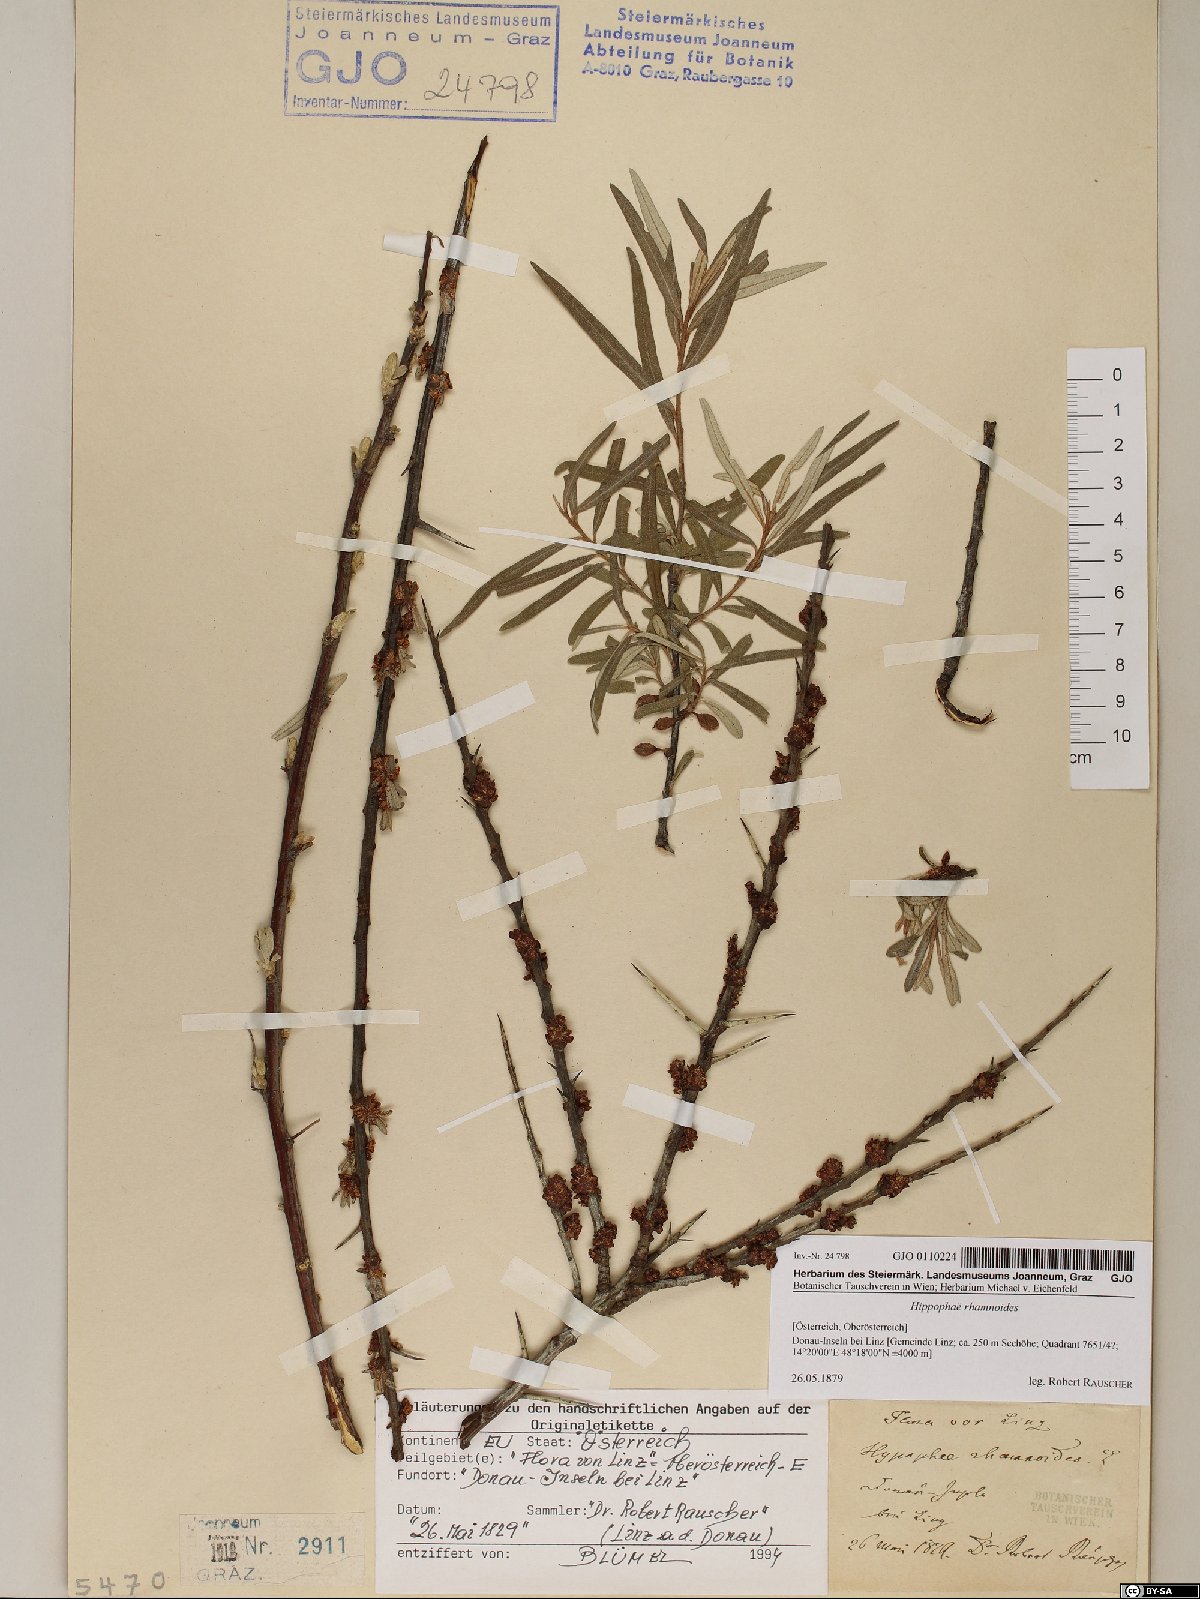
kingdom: Plantae
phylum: Tracheophyta
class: Magnoliopsida
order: Rosales
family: Elaeagnaceae
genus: Hippophae
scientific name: Hippophae rhamnoides
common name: Sea-buckthorn
